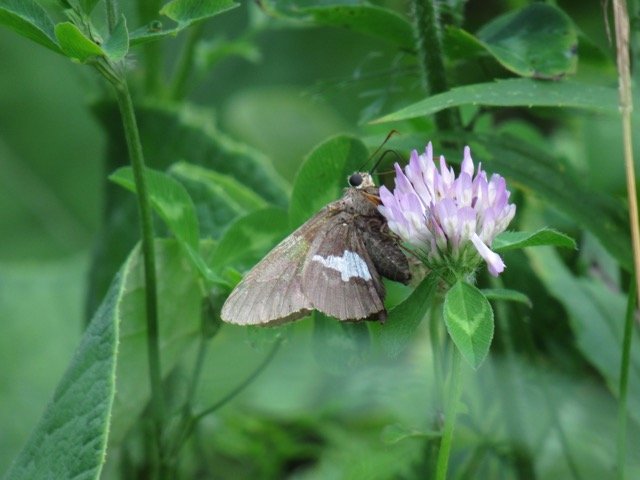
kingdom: Animalia
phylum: Arthropoda
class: Insecta
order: Lepidoptera
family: Hesperiidae
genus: Epargyreus
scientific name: Epargyreus clarus
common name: Silver-spotted Skipper
